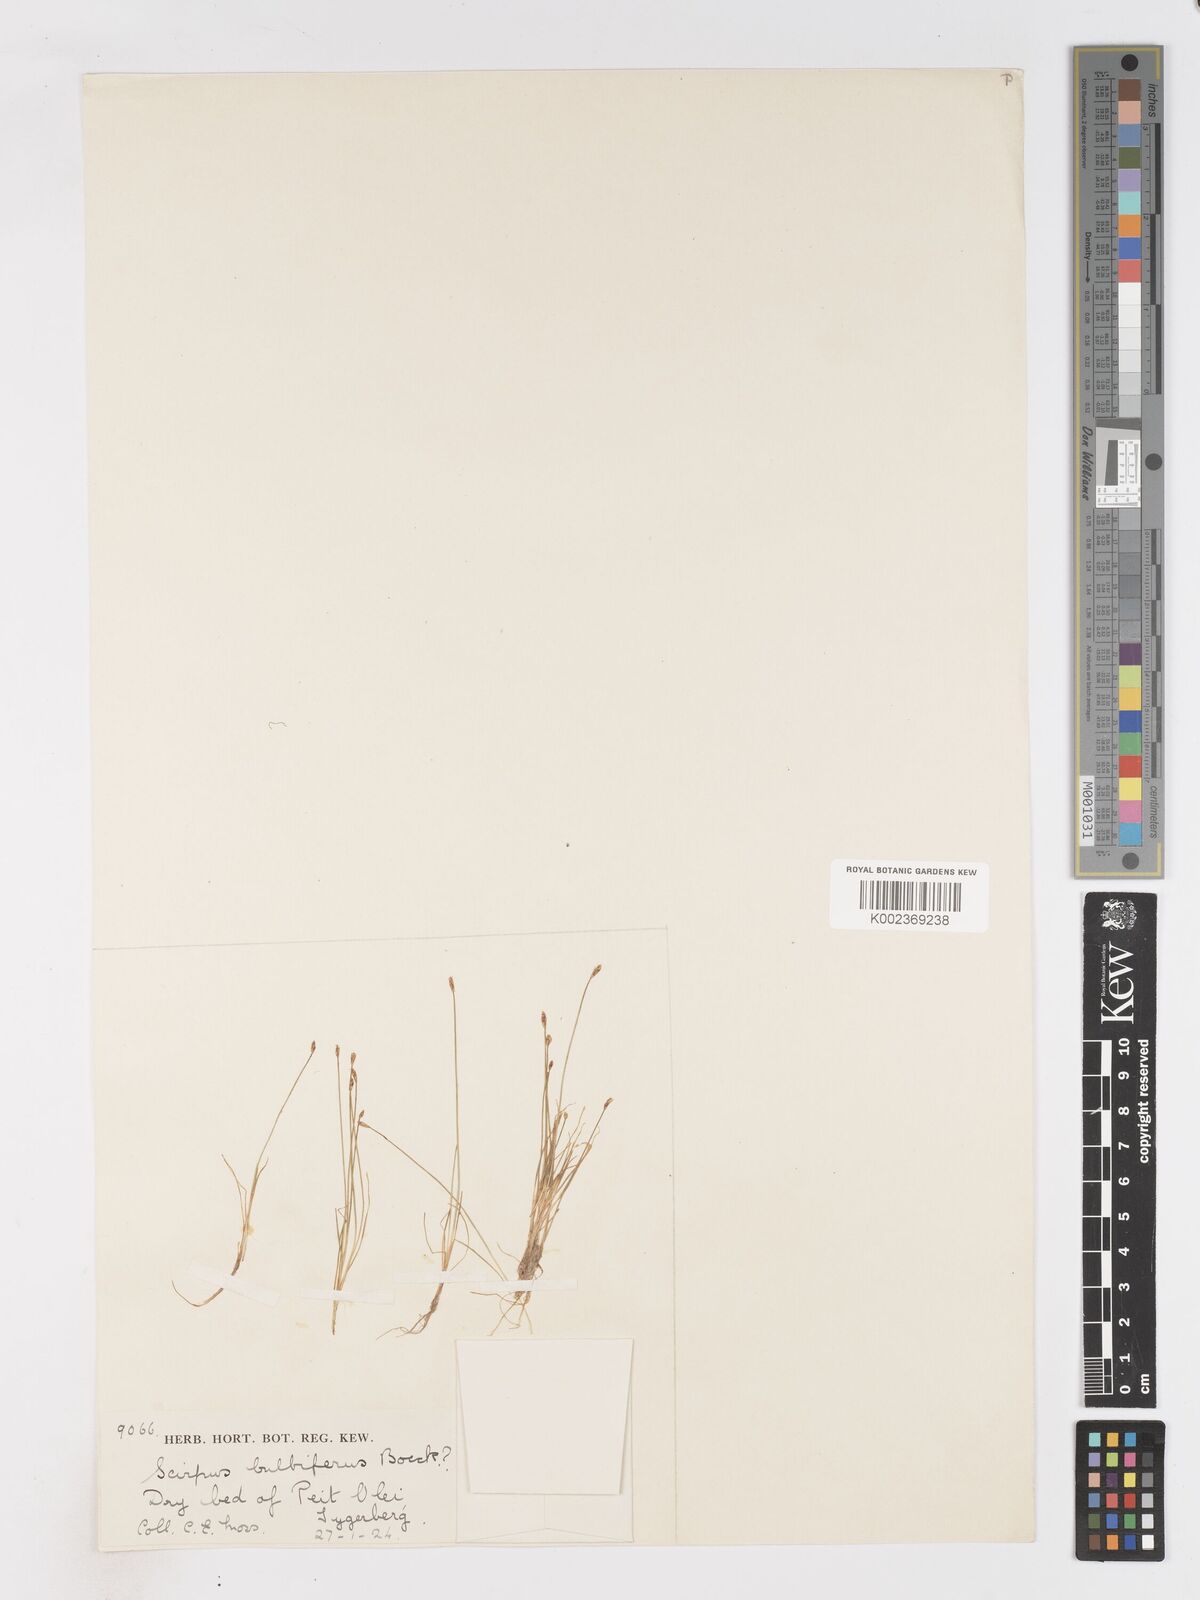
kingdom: Plantae
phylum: Tracheophyta
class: Liliopsida
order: Poales
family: Cyperaceae
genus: Isolepis
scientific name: Isolepis bulbifera
